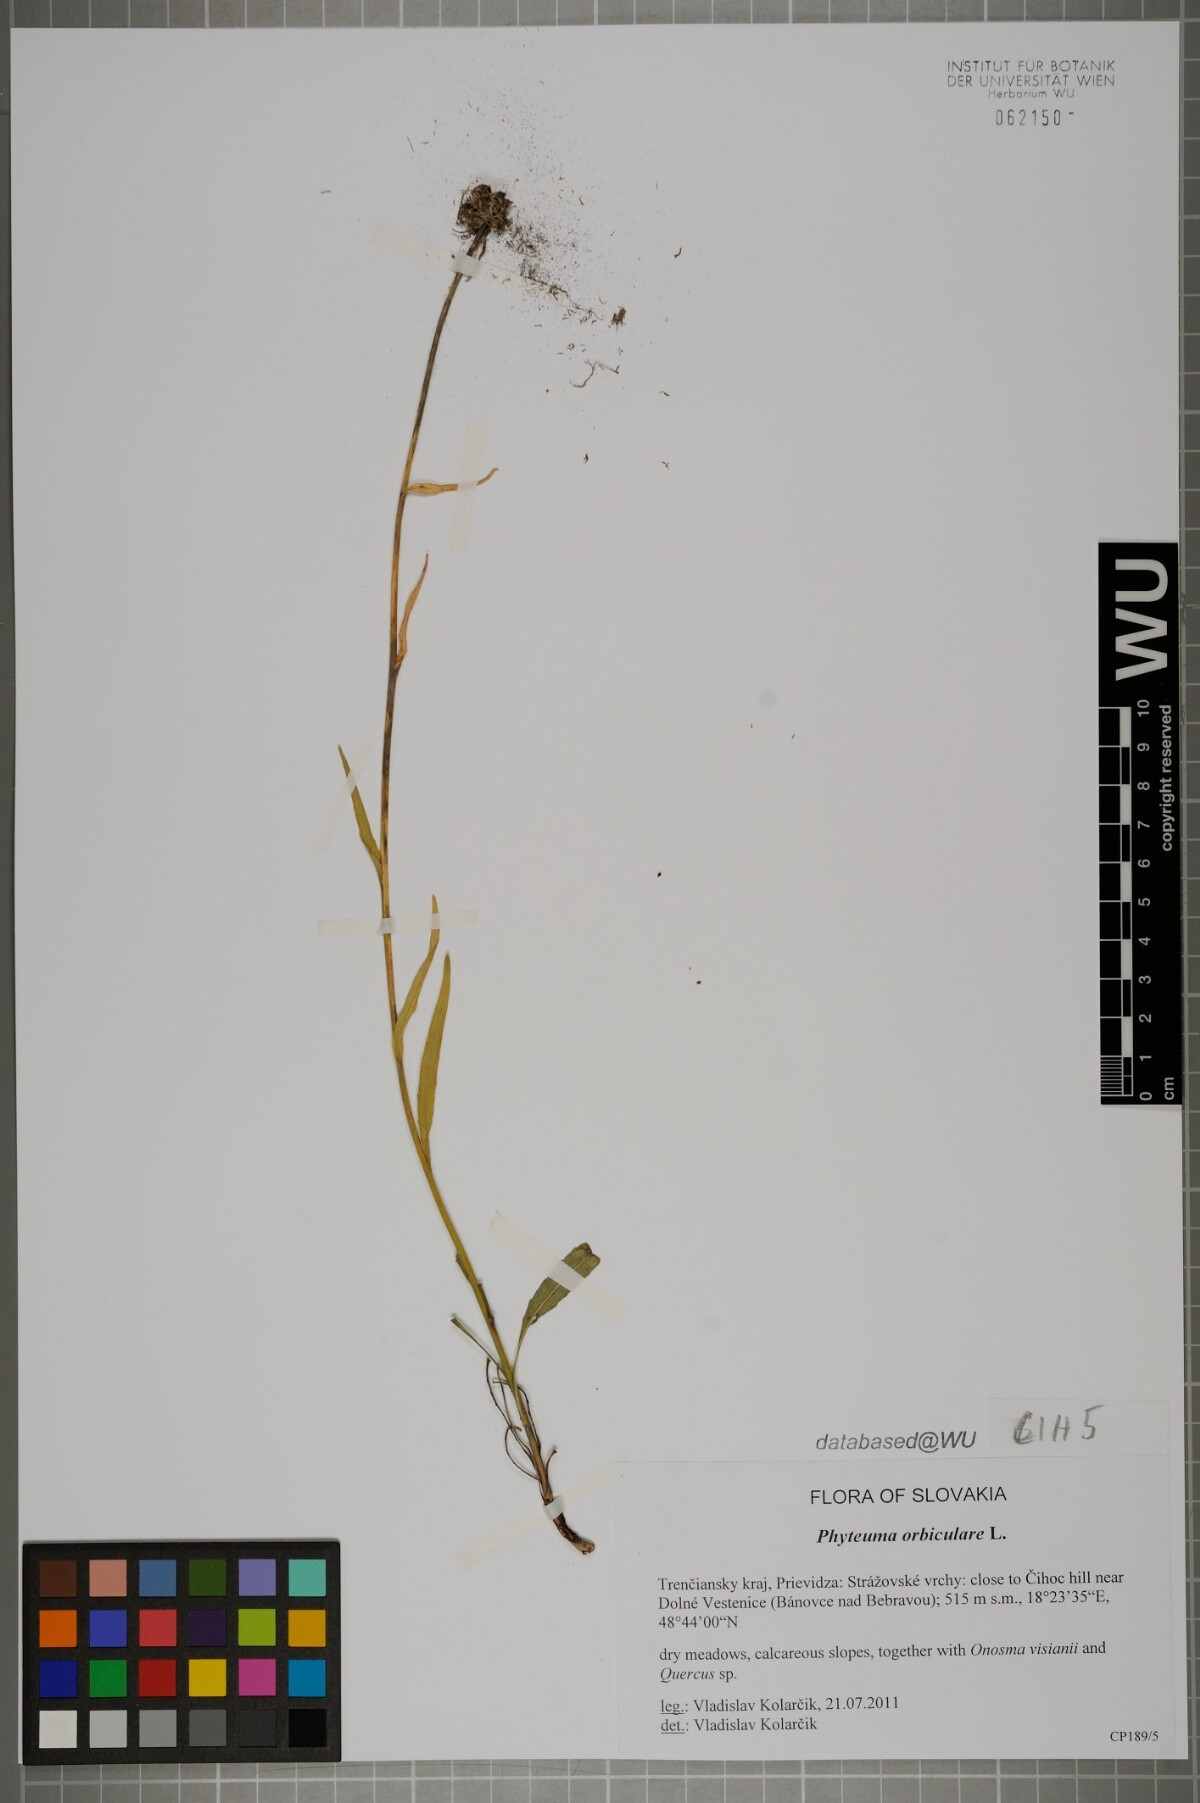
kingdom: Plantae
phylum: Tracheophyta
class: Magnoliopsida
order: Asterales
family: Campanulaceae
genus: Phyteuma
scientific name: Phyteuma orbiculare
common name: Round-headed rampion
